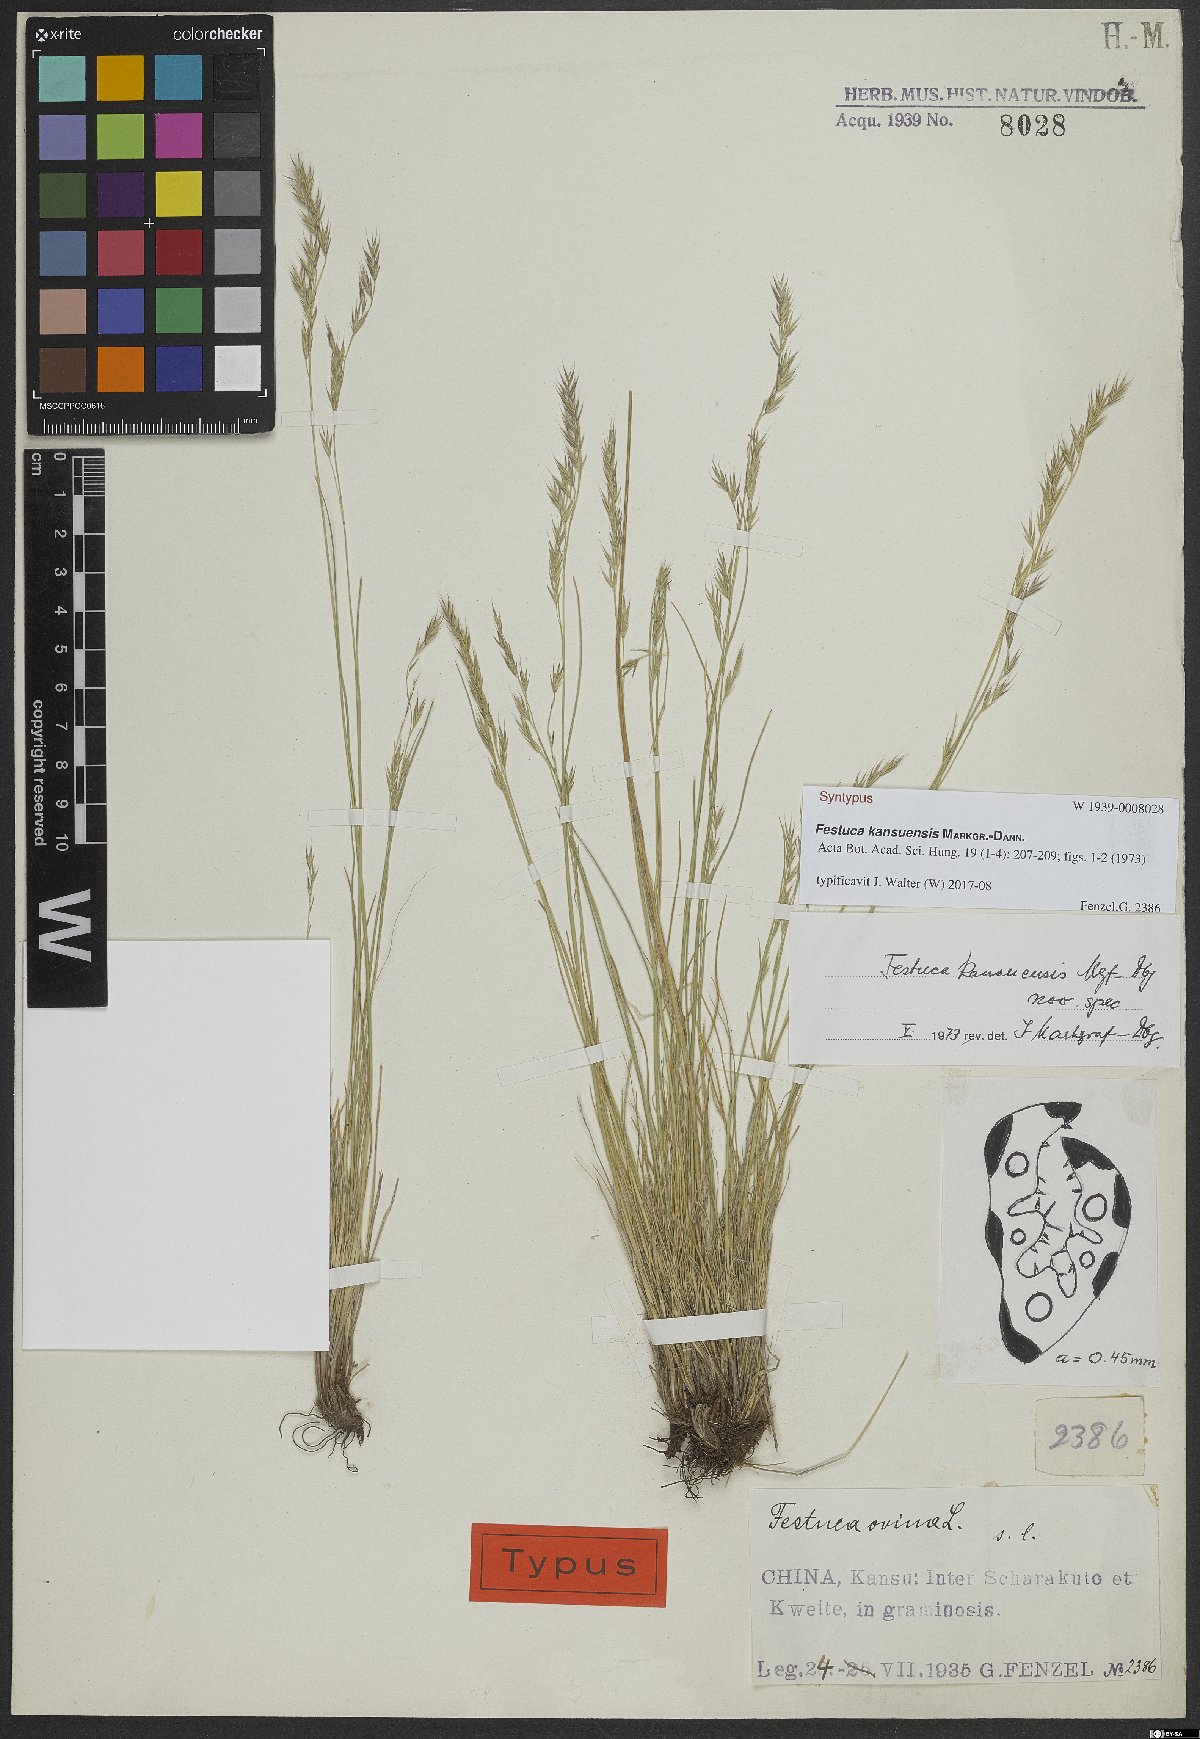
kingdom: Plantae
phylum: Tracheophyta
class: Liliopsida
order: Poales
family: Poaceae
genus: Festuca
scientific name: Festuca kansuensis
